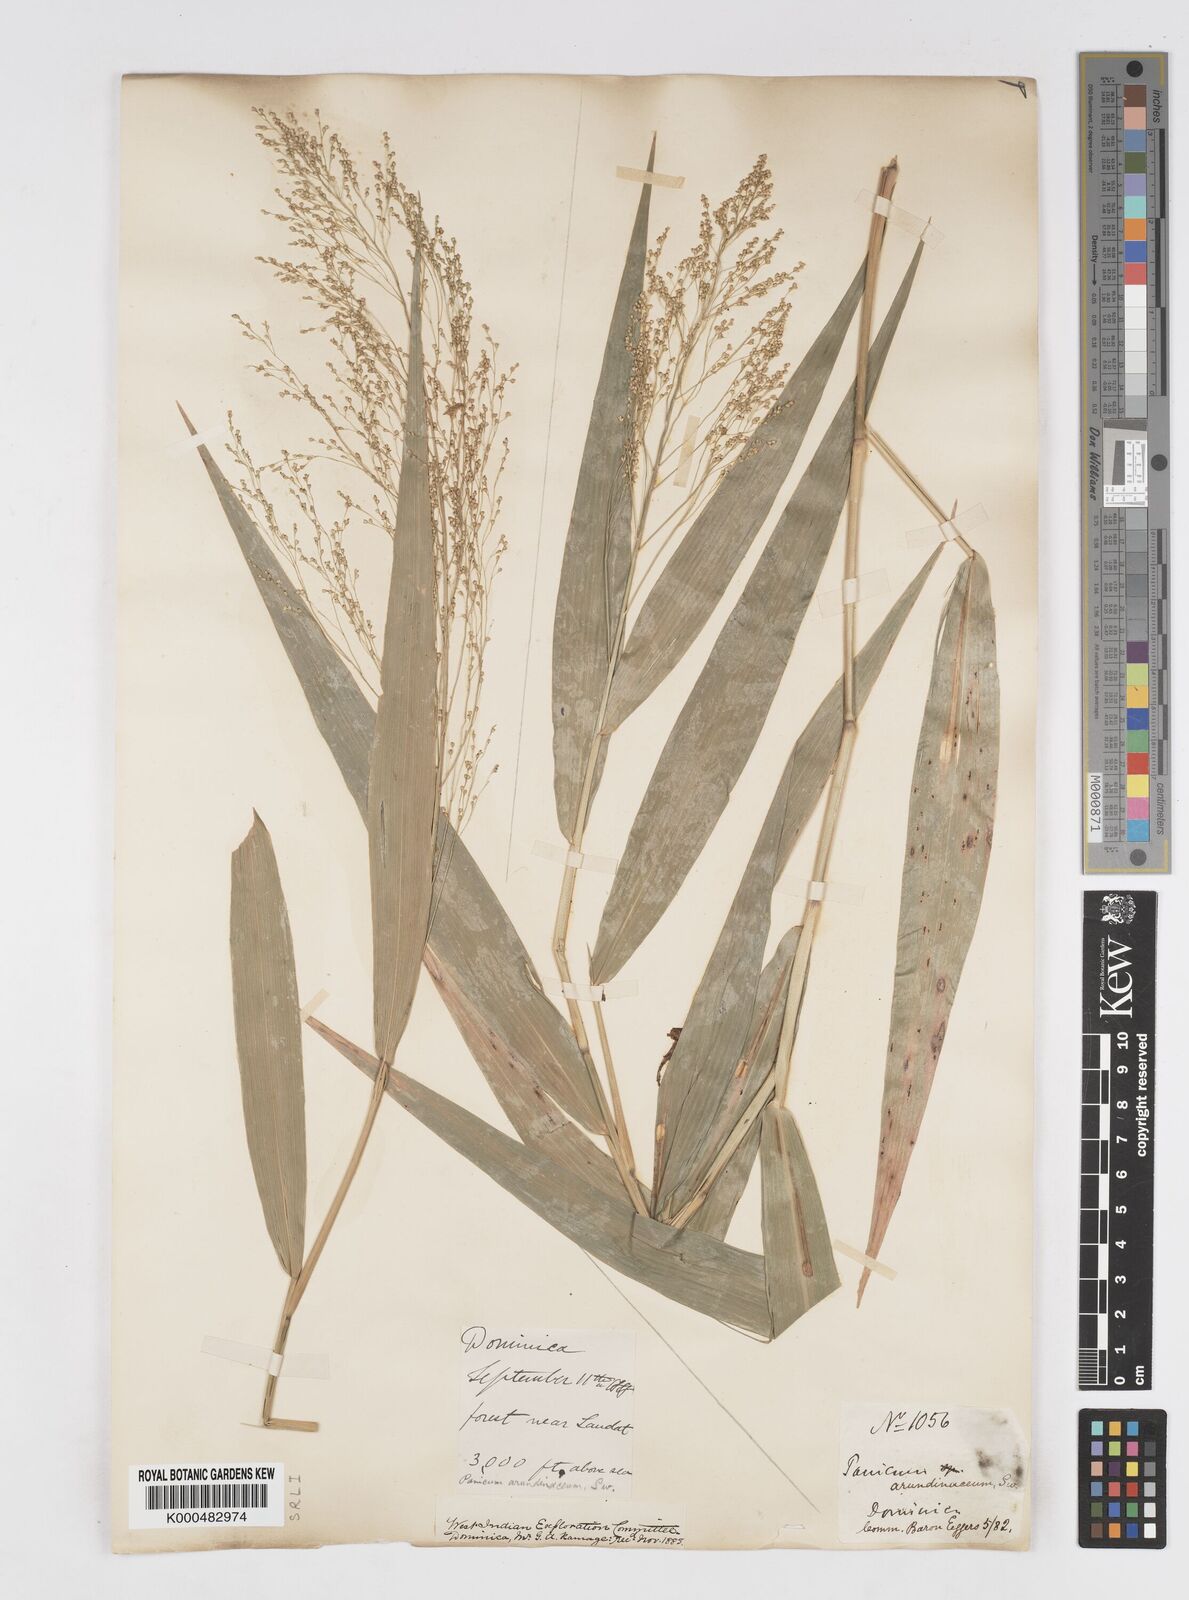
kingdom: Plantae
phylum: Tracheophyta
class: Liliopsida
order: Poales
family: Poaceae
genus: Isachne
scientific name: Isachne
